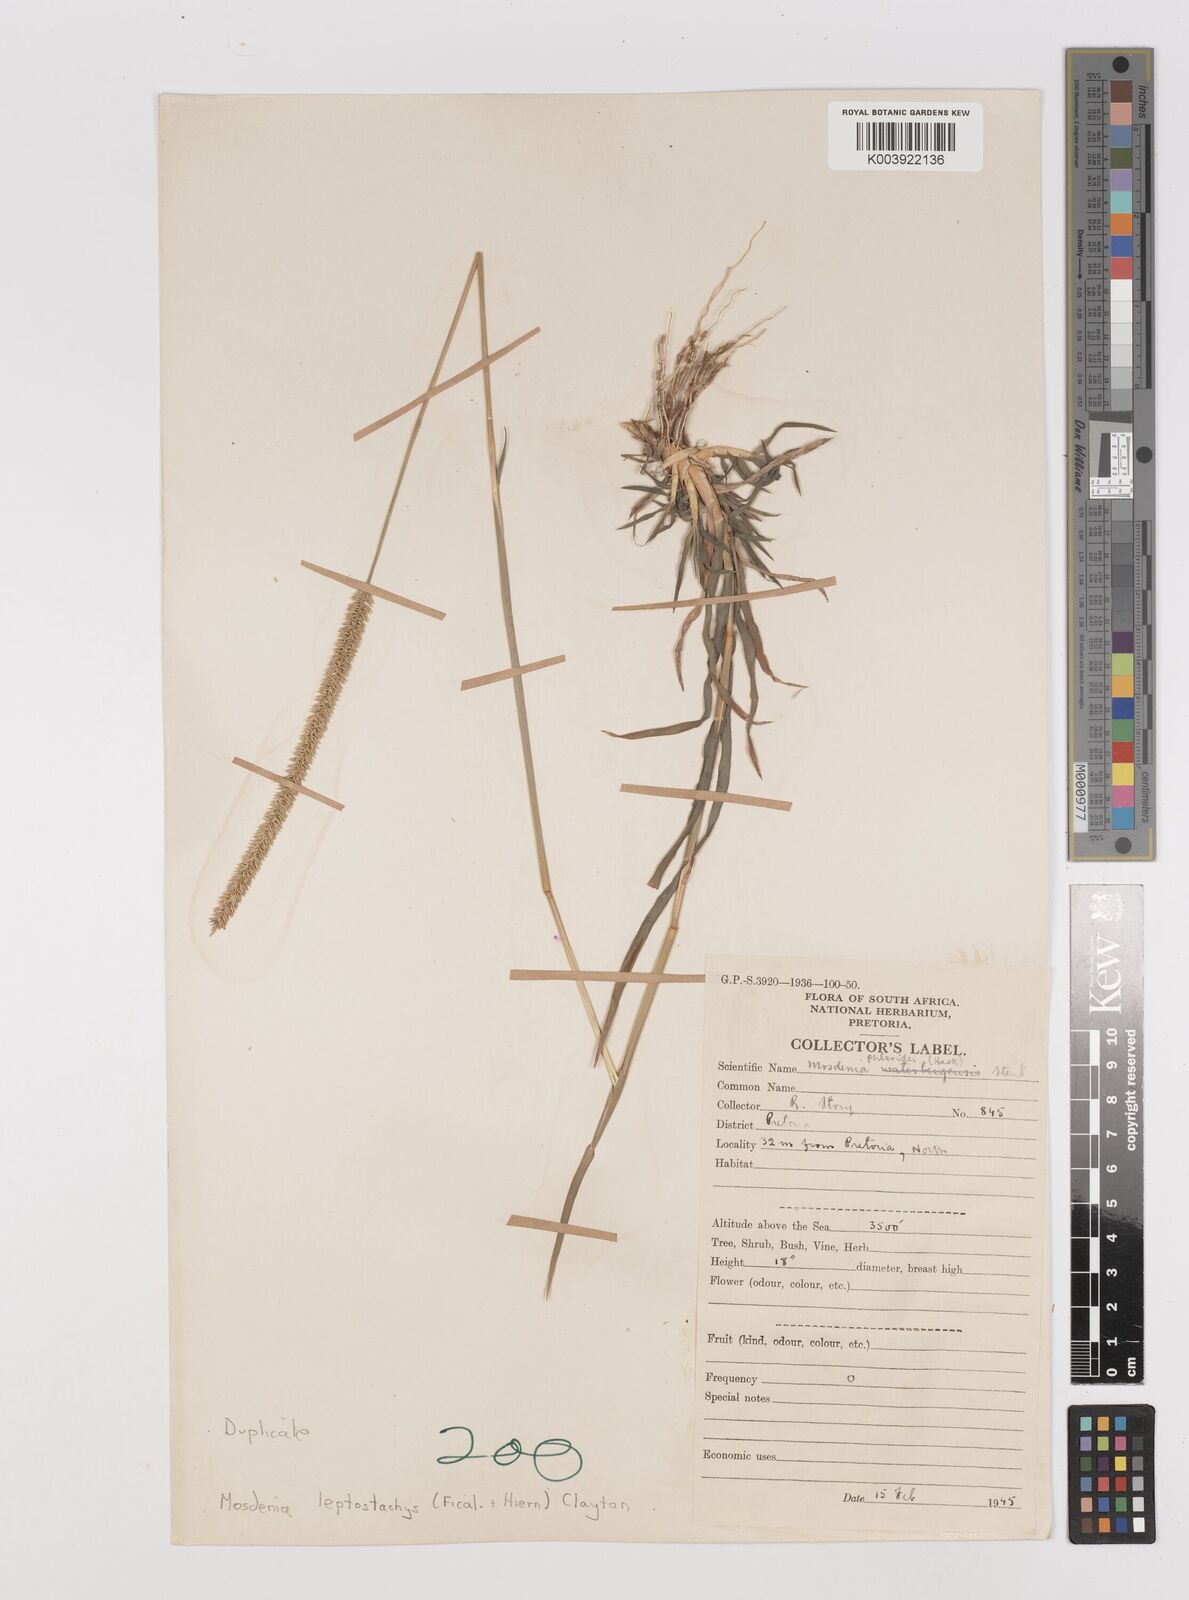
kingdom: Plantae
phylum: Tracheophyta
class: Liliopsida
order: Poales
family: Poaceae
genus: Mosdenia
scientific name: Mosdenia leptostachys
